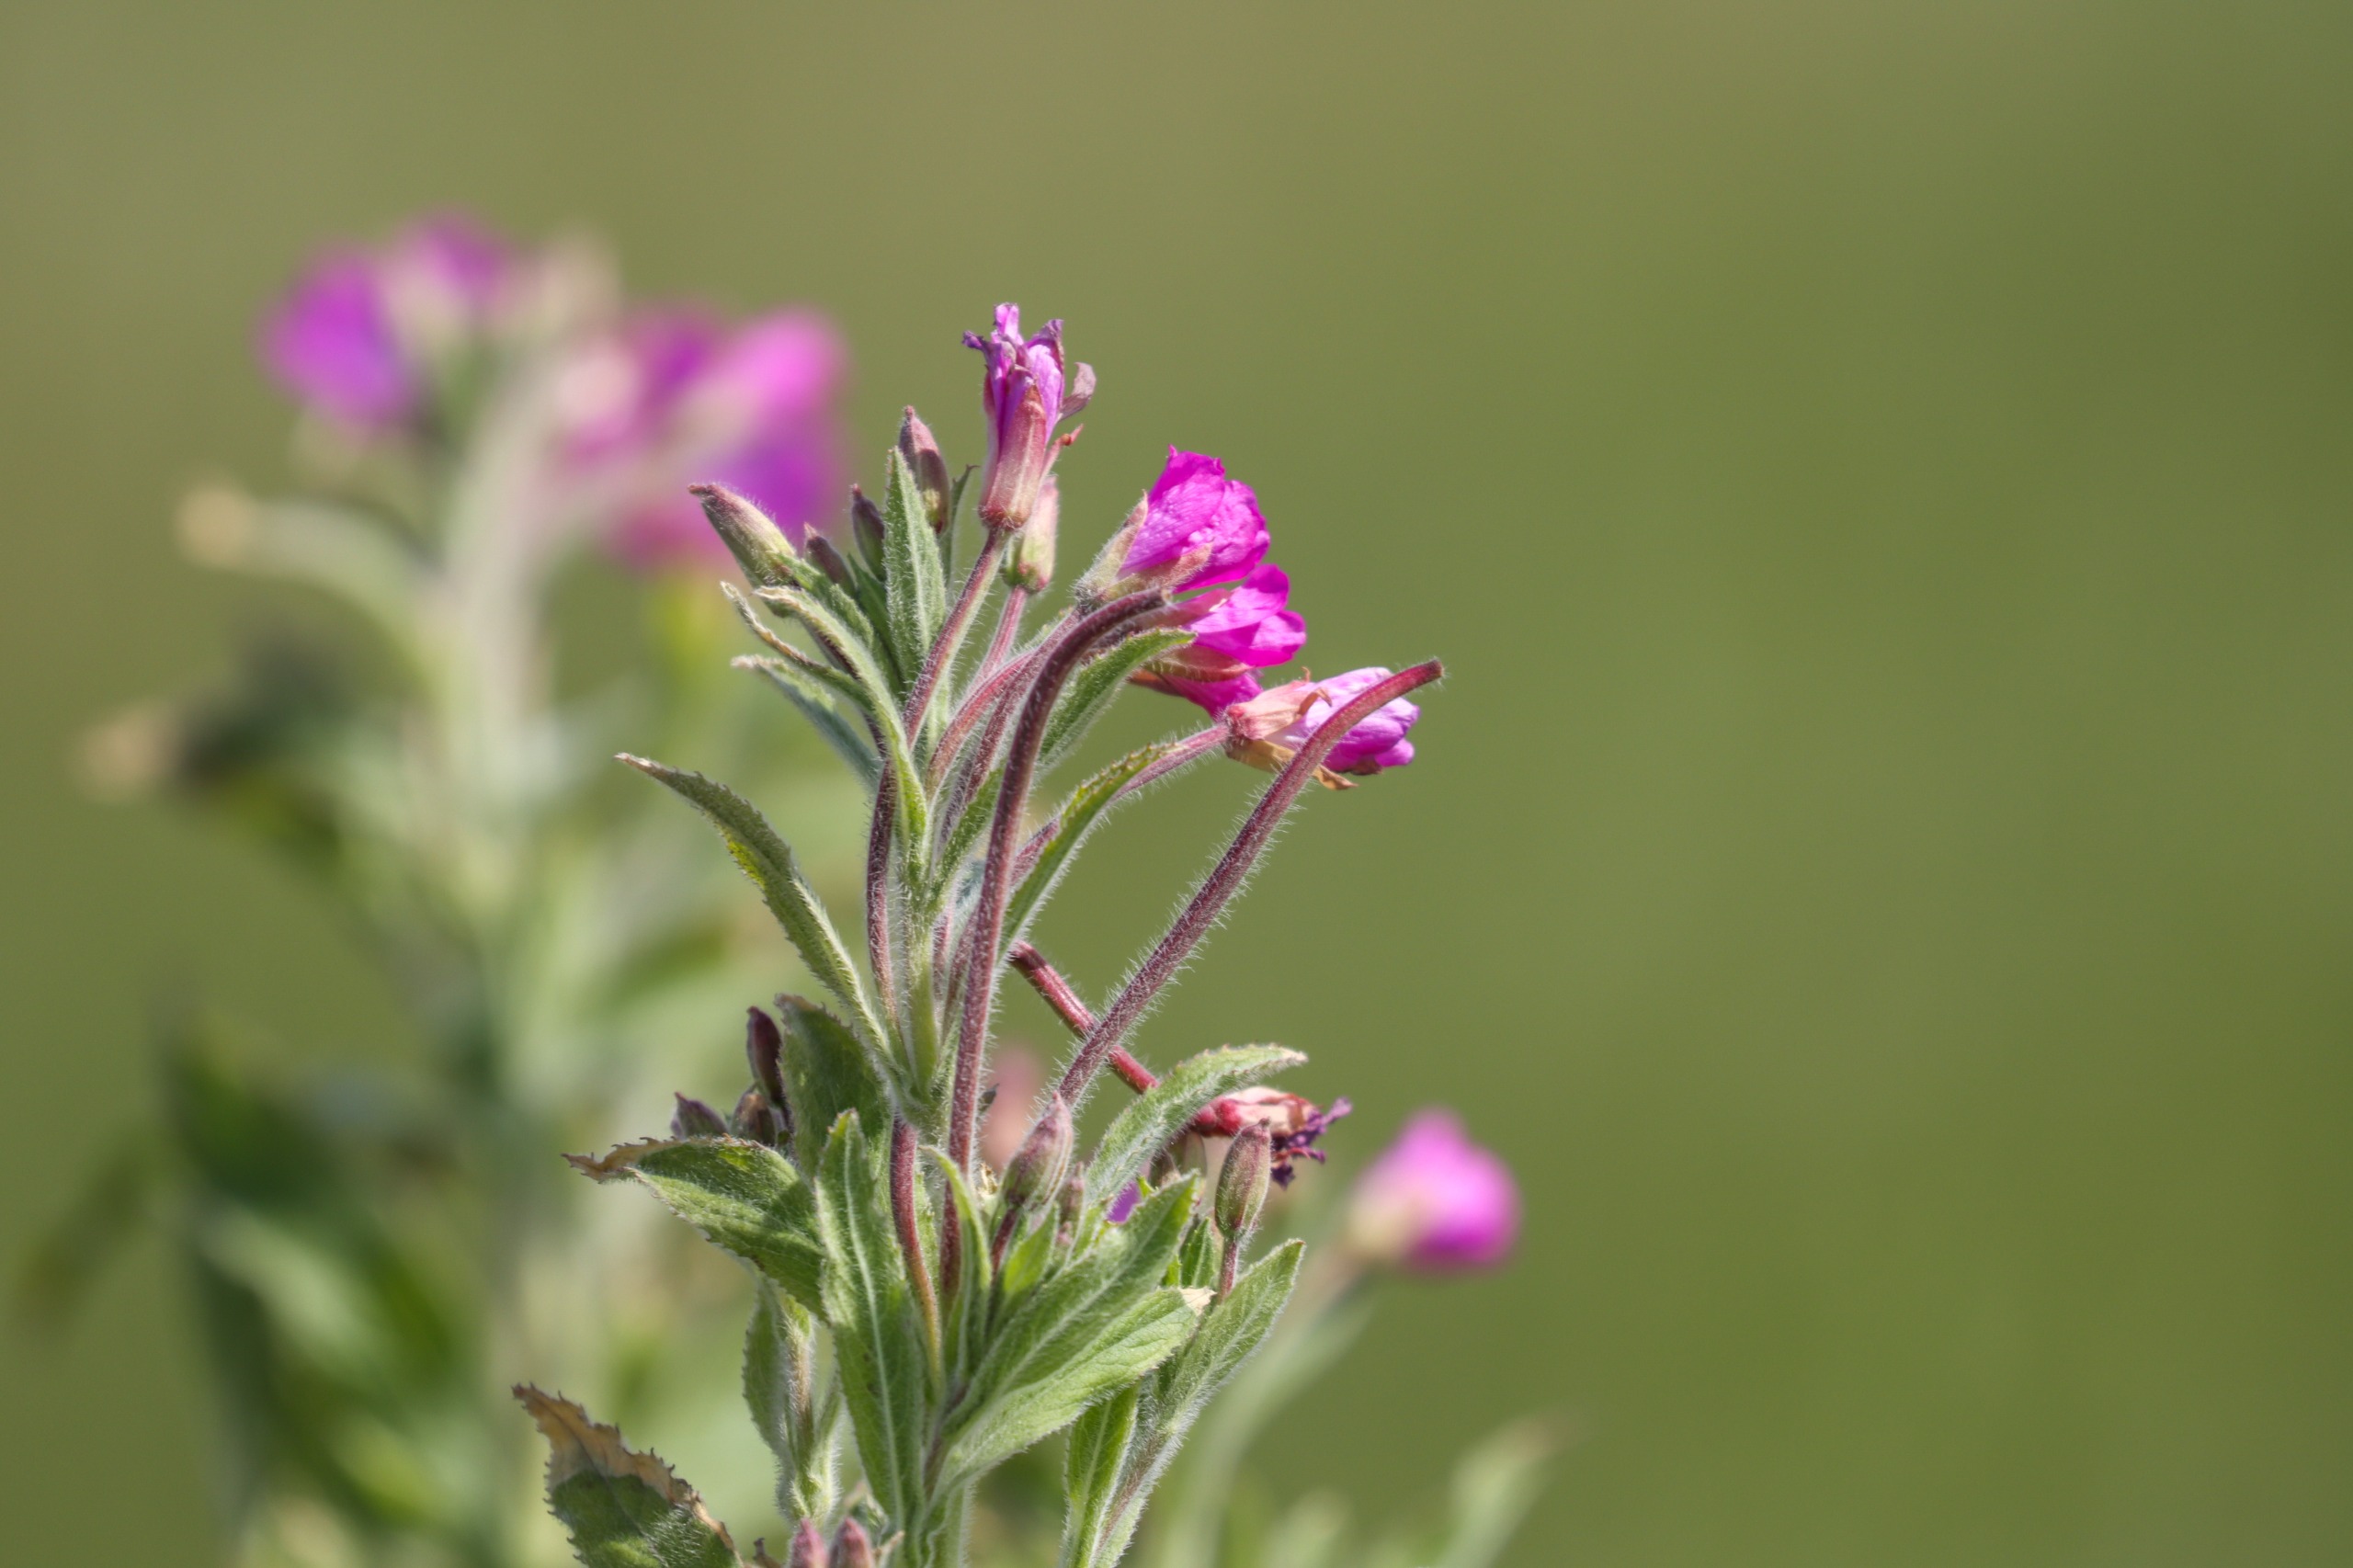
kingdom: Plantae
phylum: Tracheophyta
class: Magnoliopsida
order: Myrtales
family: Onagraceae
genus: Epilobium
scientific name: Epilobium hirsutum
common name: Lådden dueurt
